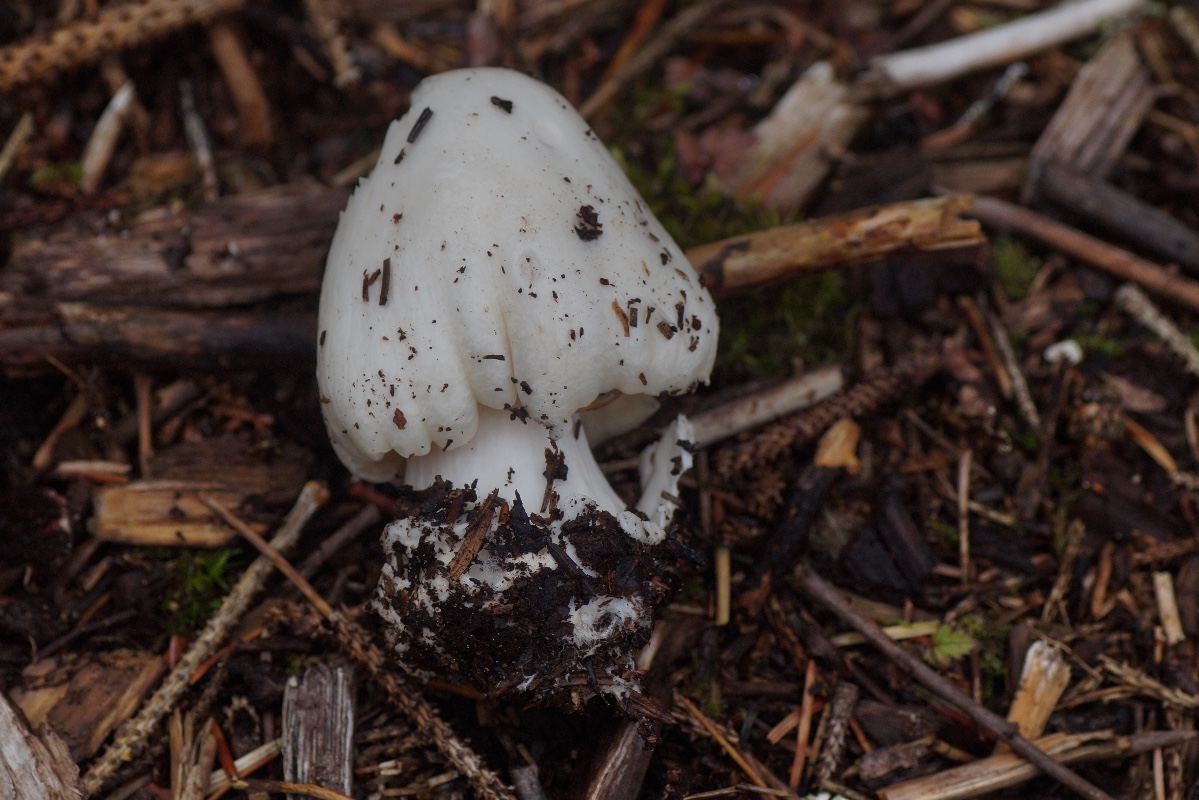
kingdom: Fungi
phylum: Basidiomycota
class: Agaricomycetes
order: Agaricales
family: Pluteaceae
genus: Volvopluteus
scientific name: Volvopluteus gloiocephalus
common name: høj posesvamp
